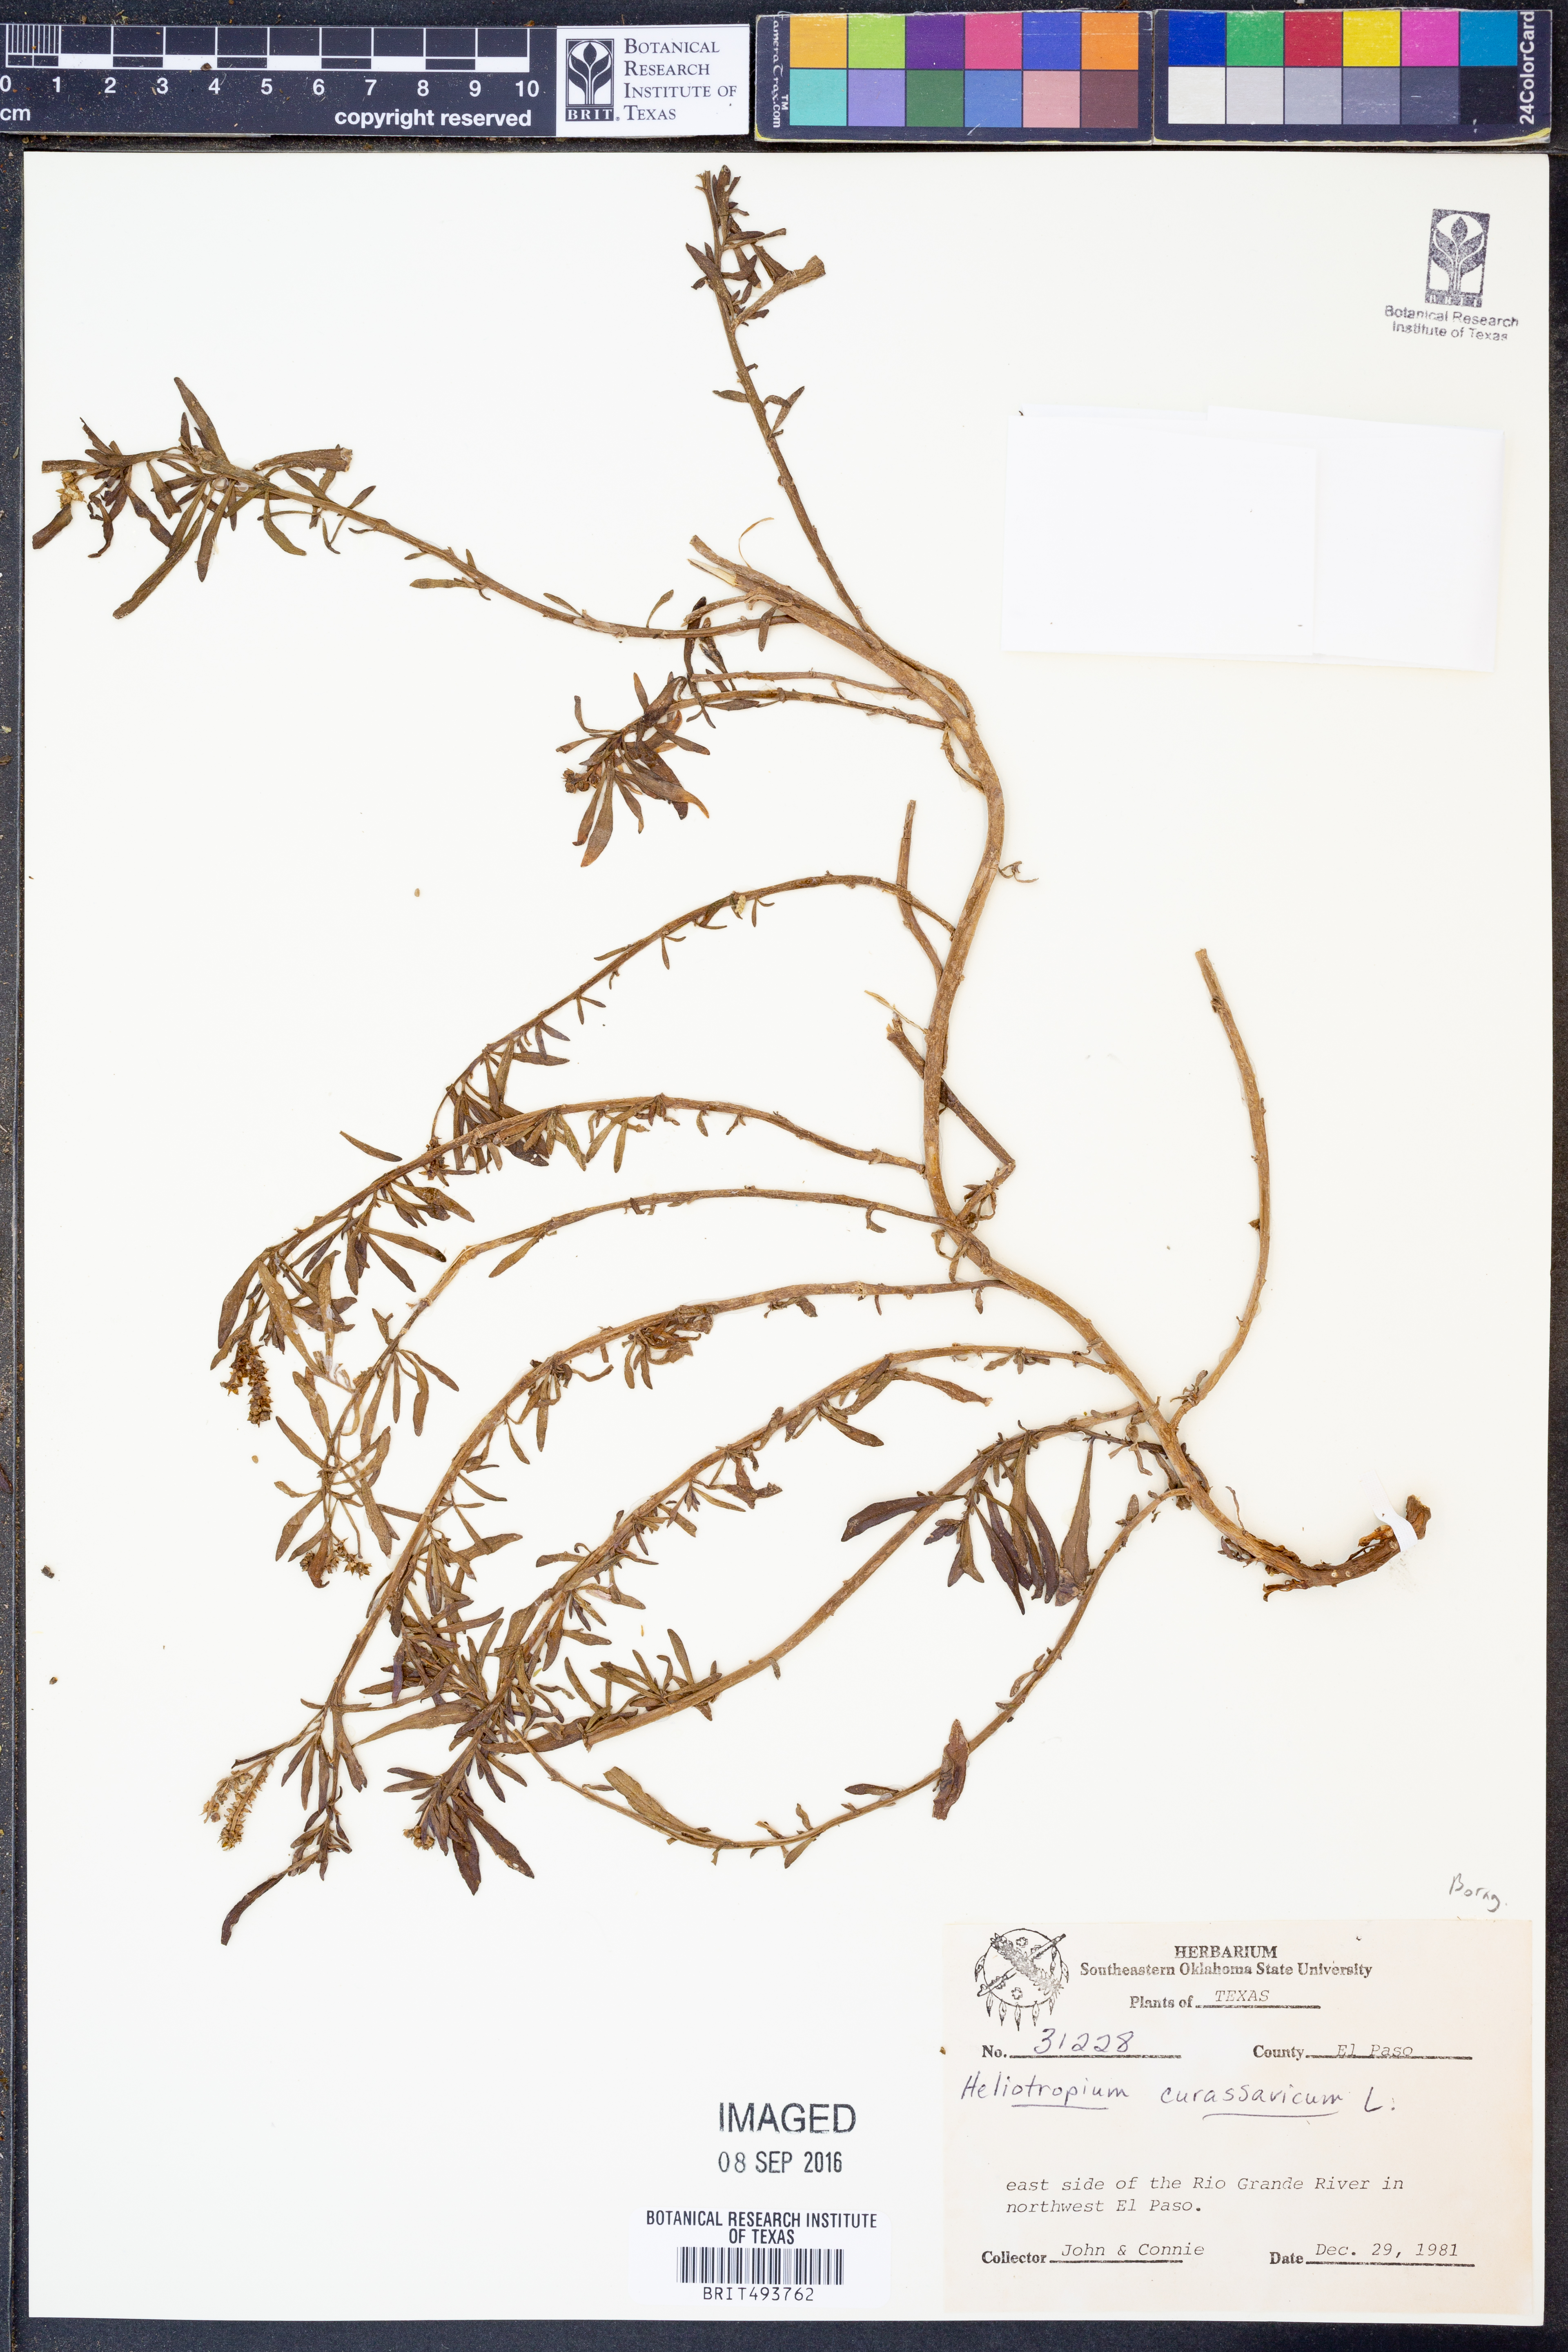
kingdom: Plantae
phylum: Tracheophyta
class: Magnoliopsida
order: Boraginales
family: Heliotropiaceae
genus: Heliotropium
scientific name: Heliotropium curassavicum
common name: Seaside heliotrope
